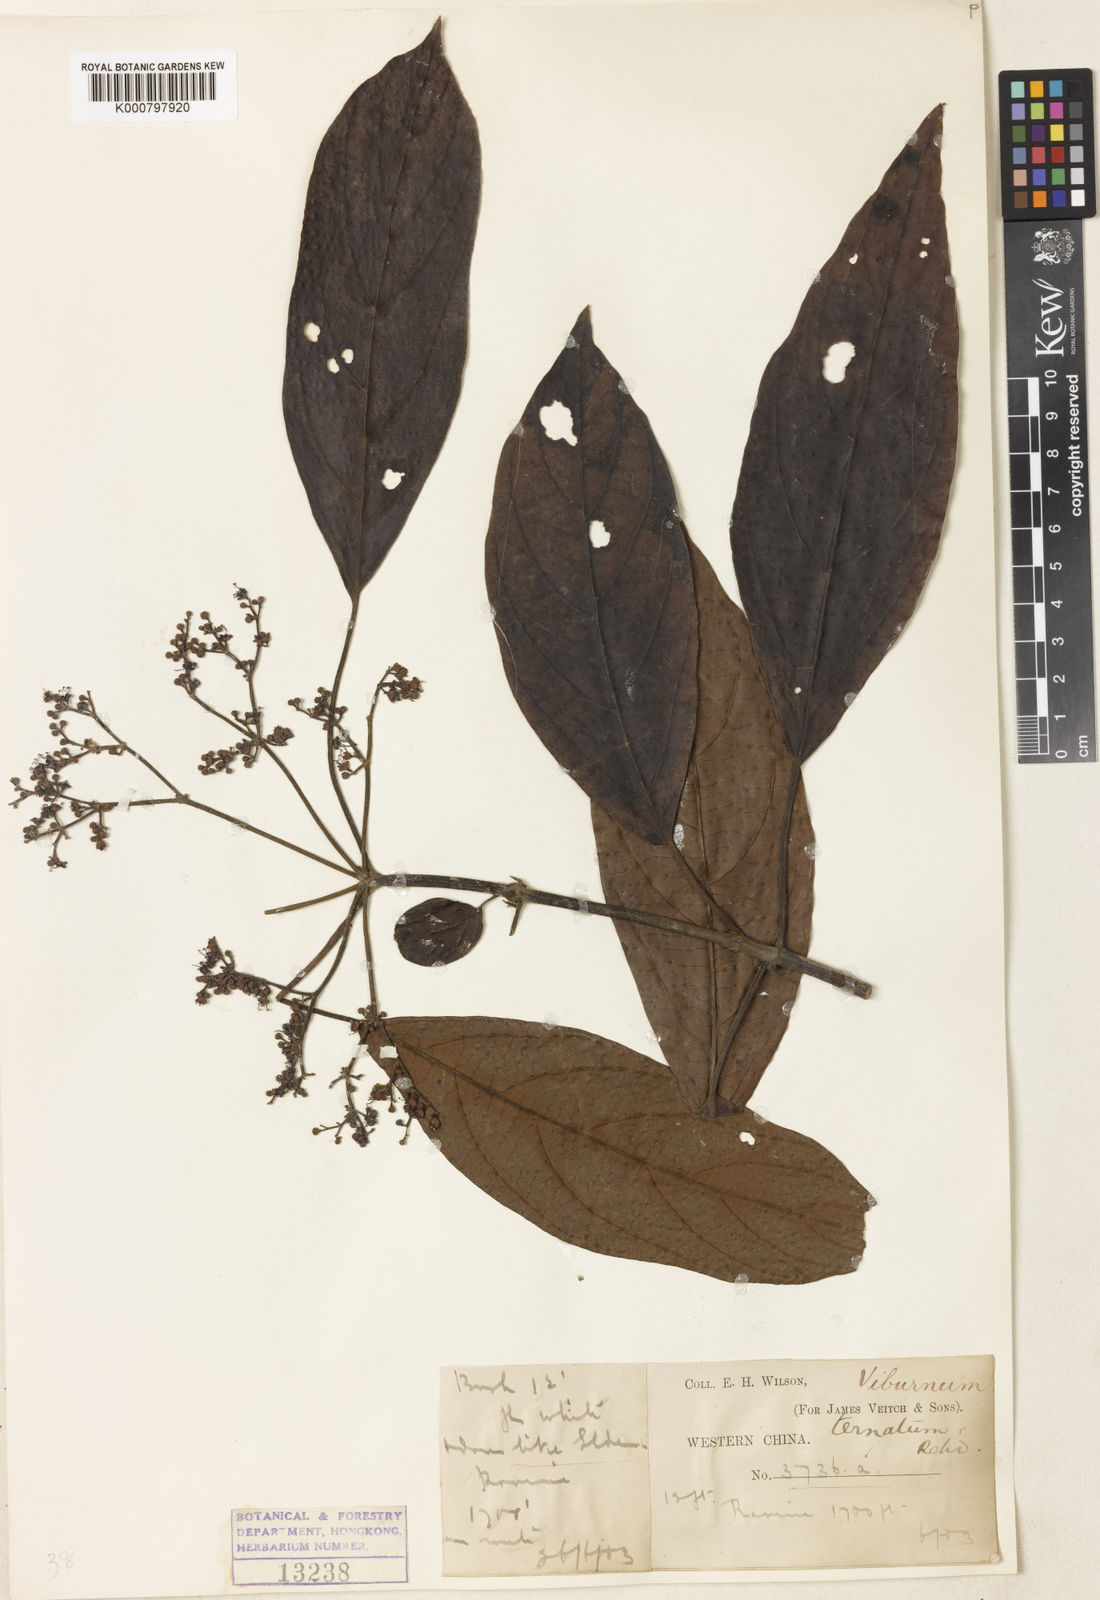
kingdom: Plantae
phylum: Tracheophyta
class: Magnoliopsida
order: Dipsacales
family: Viburnaceae
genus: Viburnum
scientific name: Viburnum ternatum
